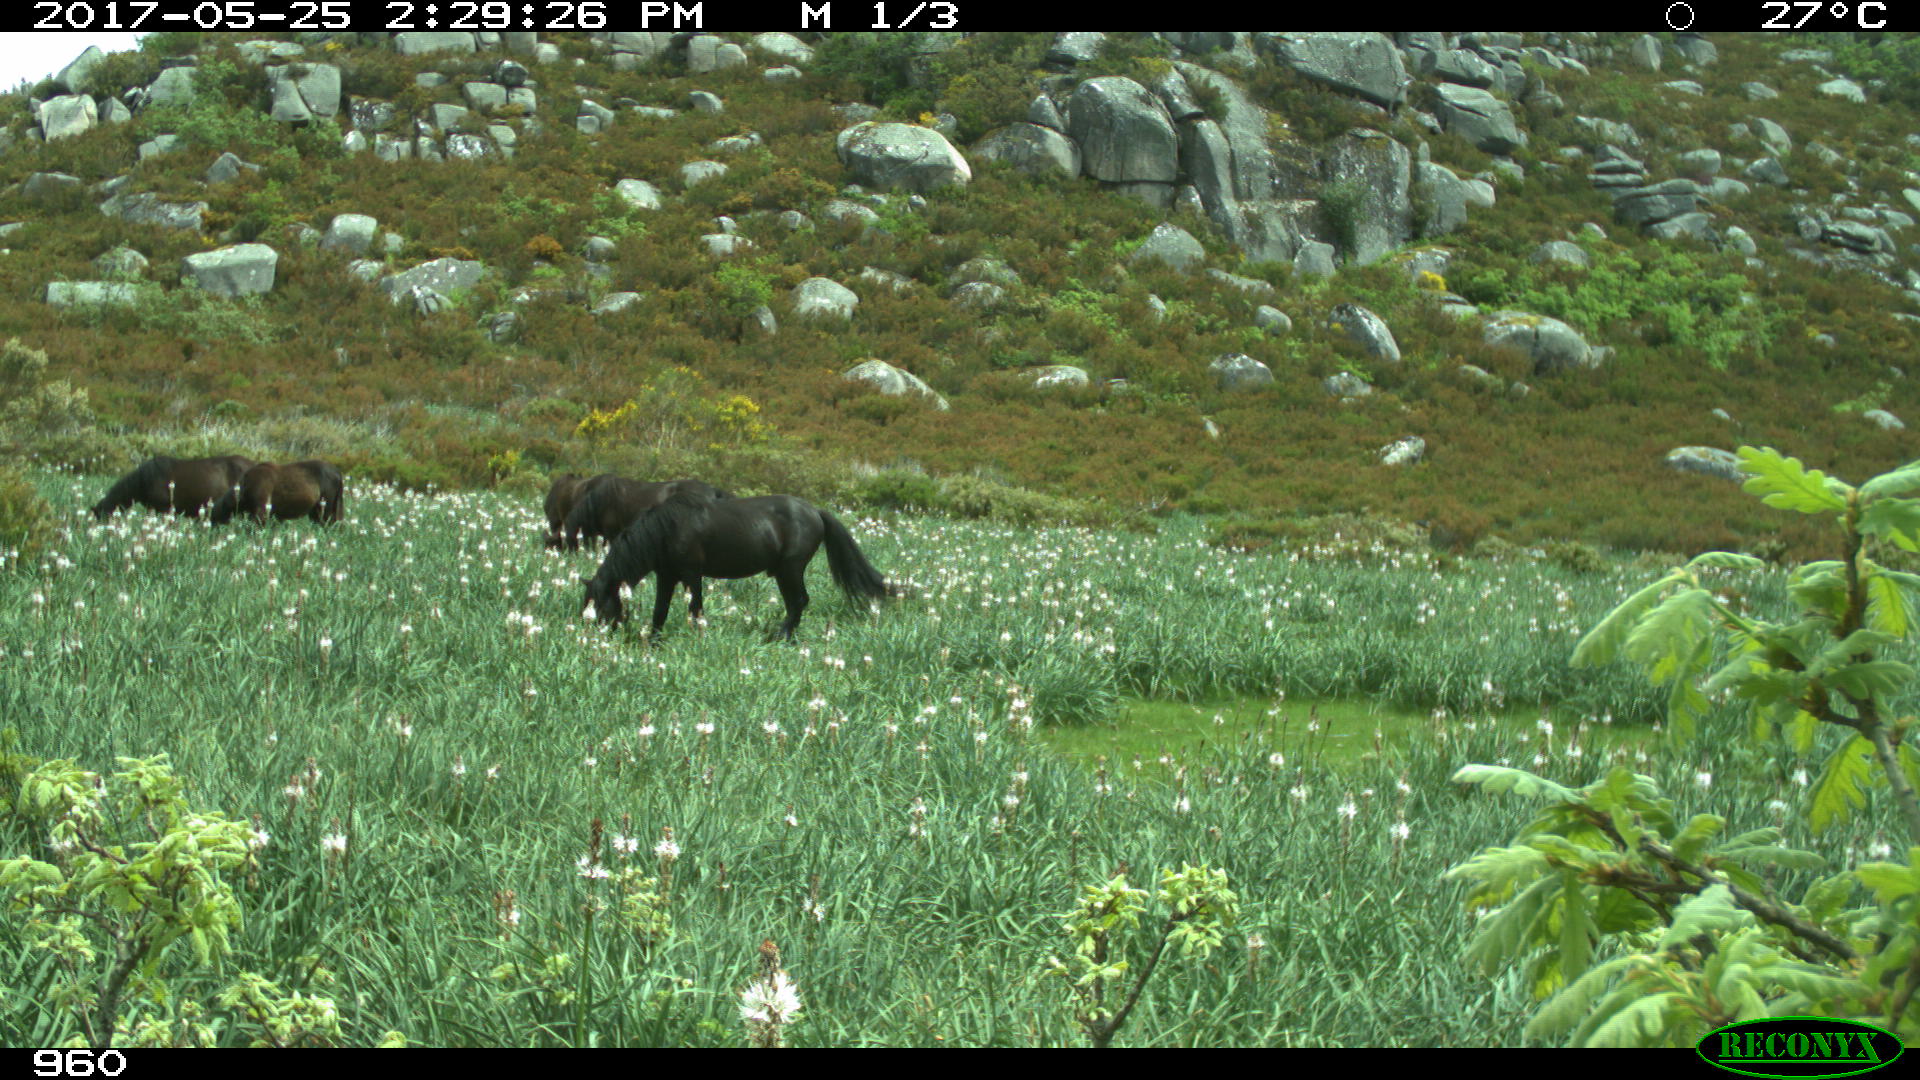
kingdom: Animalia
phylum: Chordata
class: Mammalia
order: Perissodactyla
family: Equidae
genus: Equus
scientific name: Equus caballus
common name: Horse
